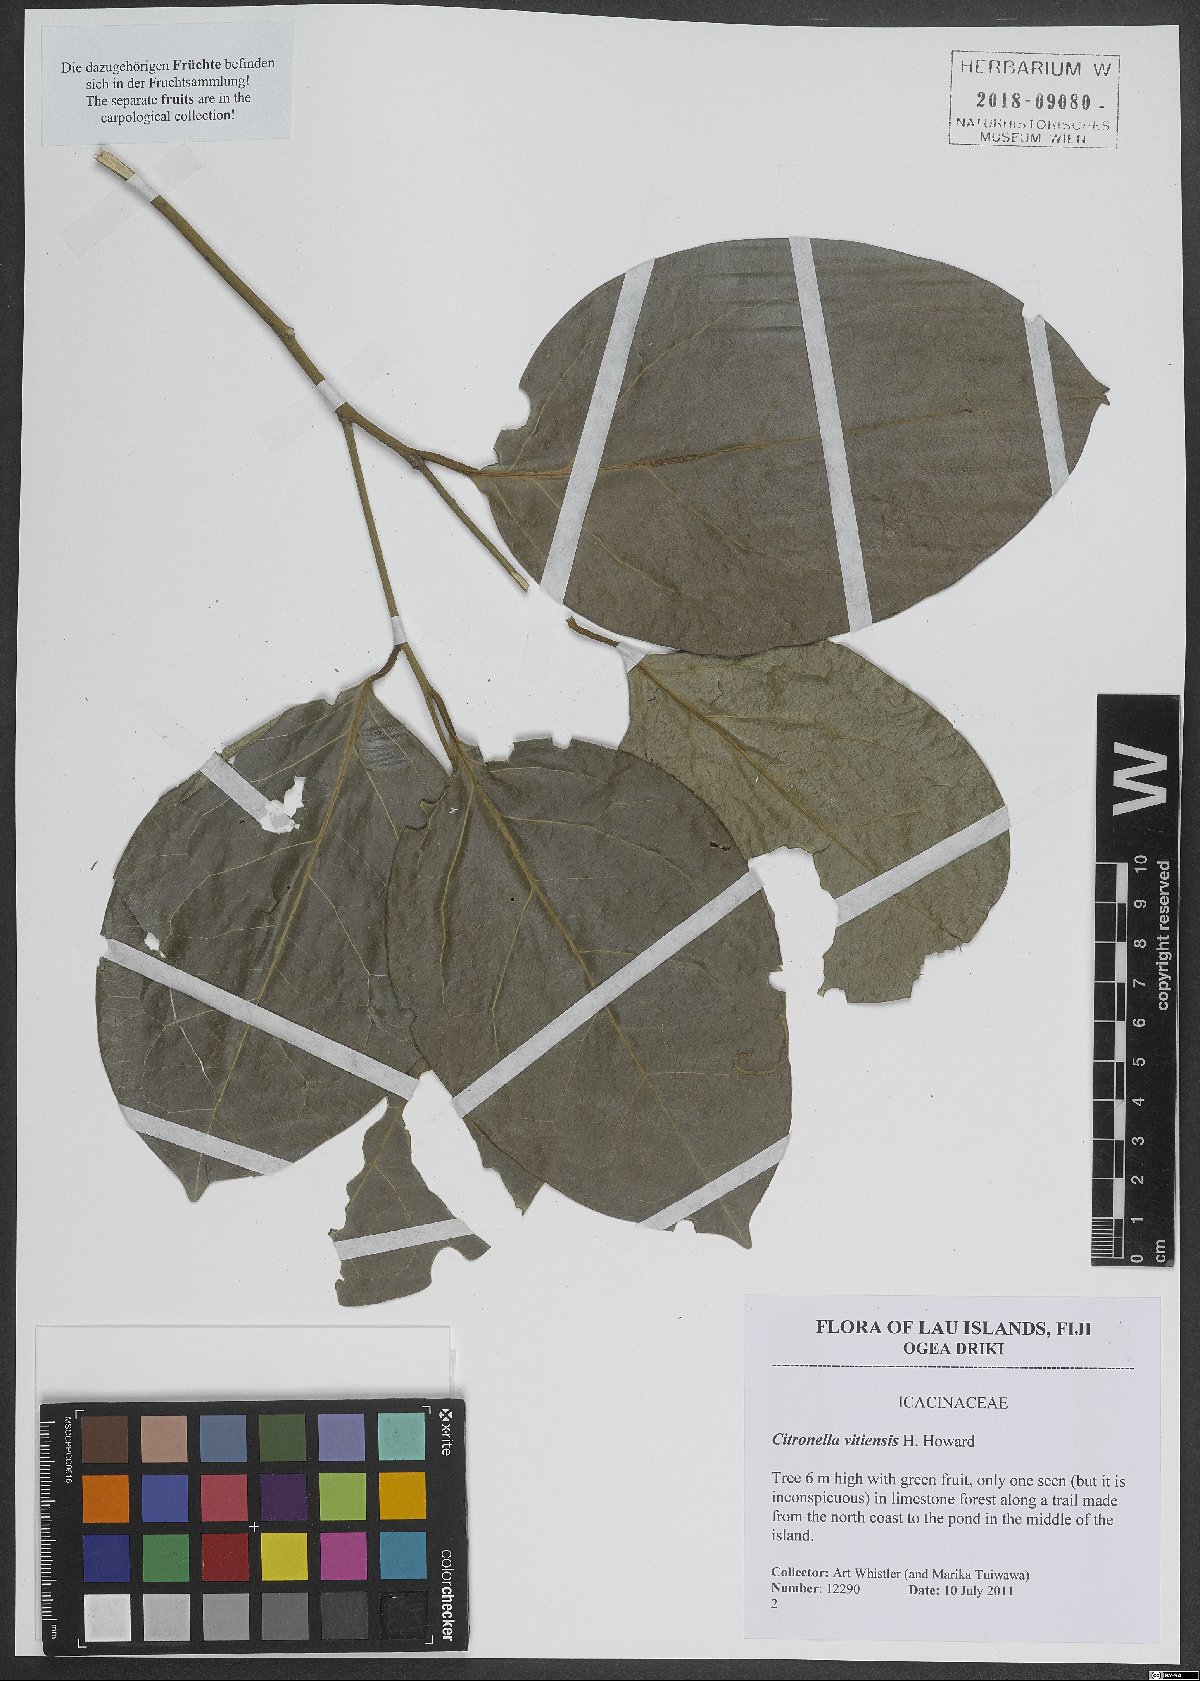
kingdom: Plantae
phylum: Tracheophyta
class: Magnoliopsida
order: Cardiopteridales
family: Cardiopteridaceae
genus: Citronella
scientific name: Citronella vitiensis
